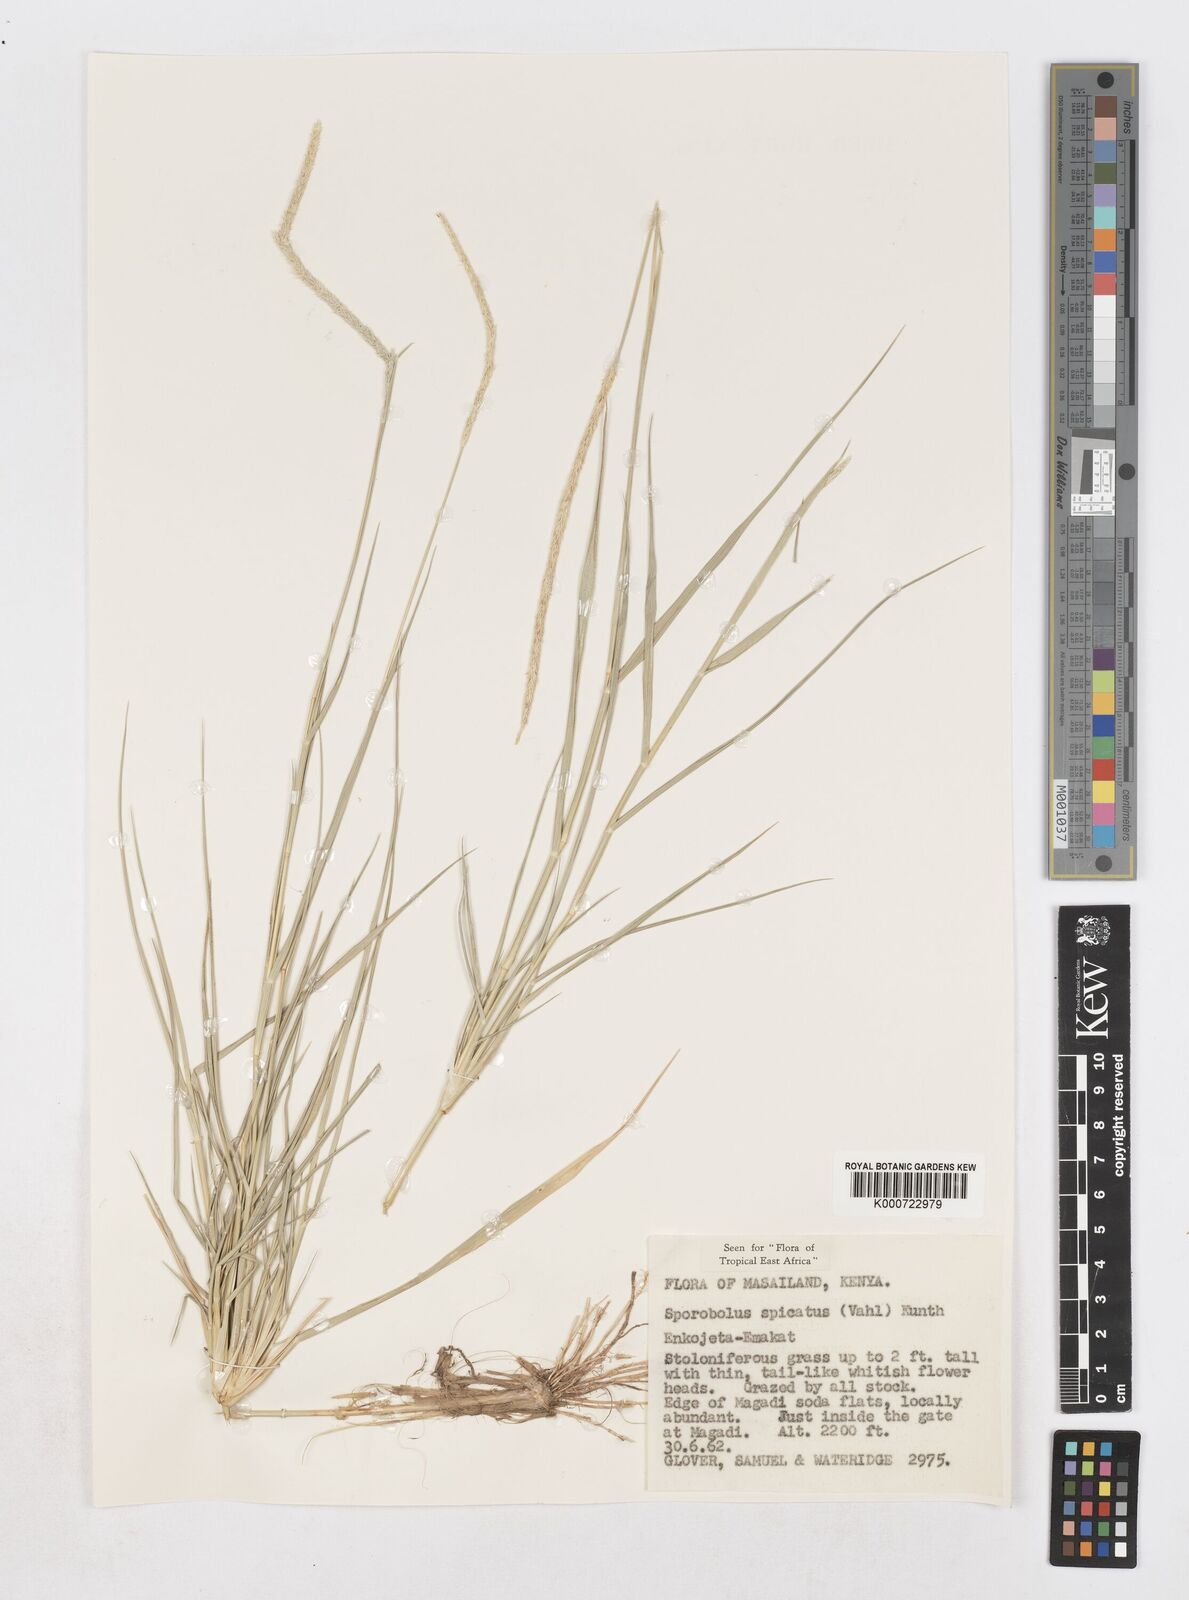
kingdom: Plantae
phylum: Tracheophyta
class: Liliopsida
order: Poales
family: Poaceae
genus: Sporobolus
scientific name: Sporobolus spicatus
